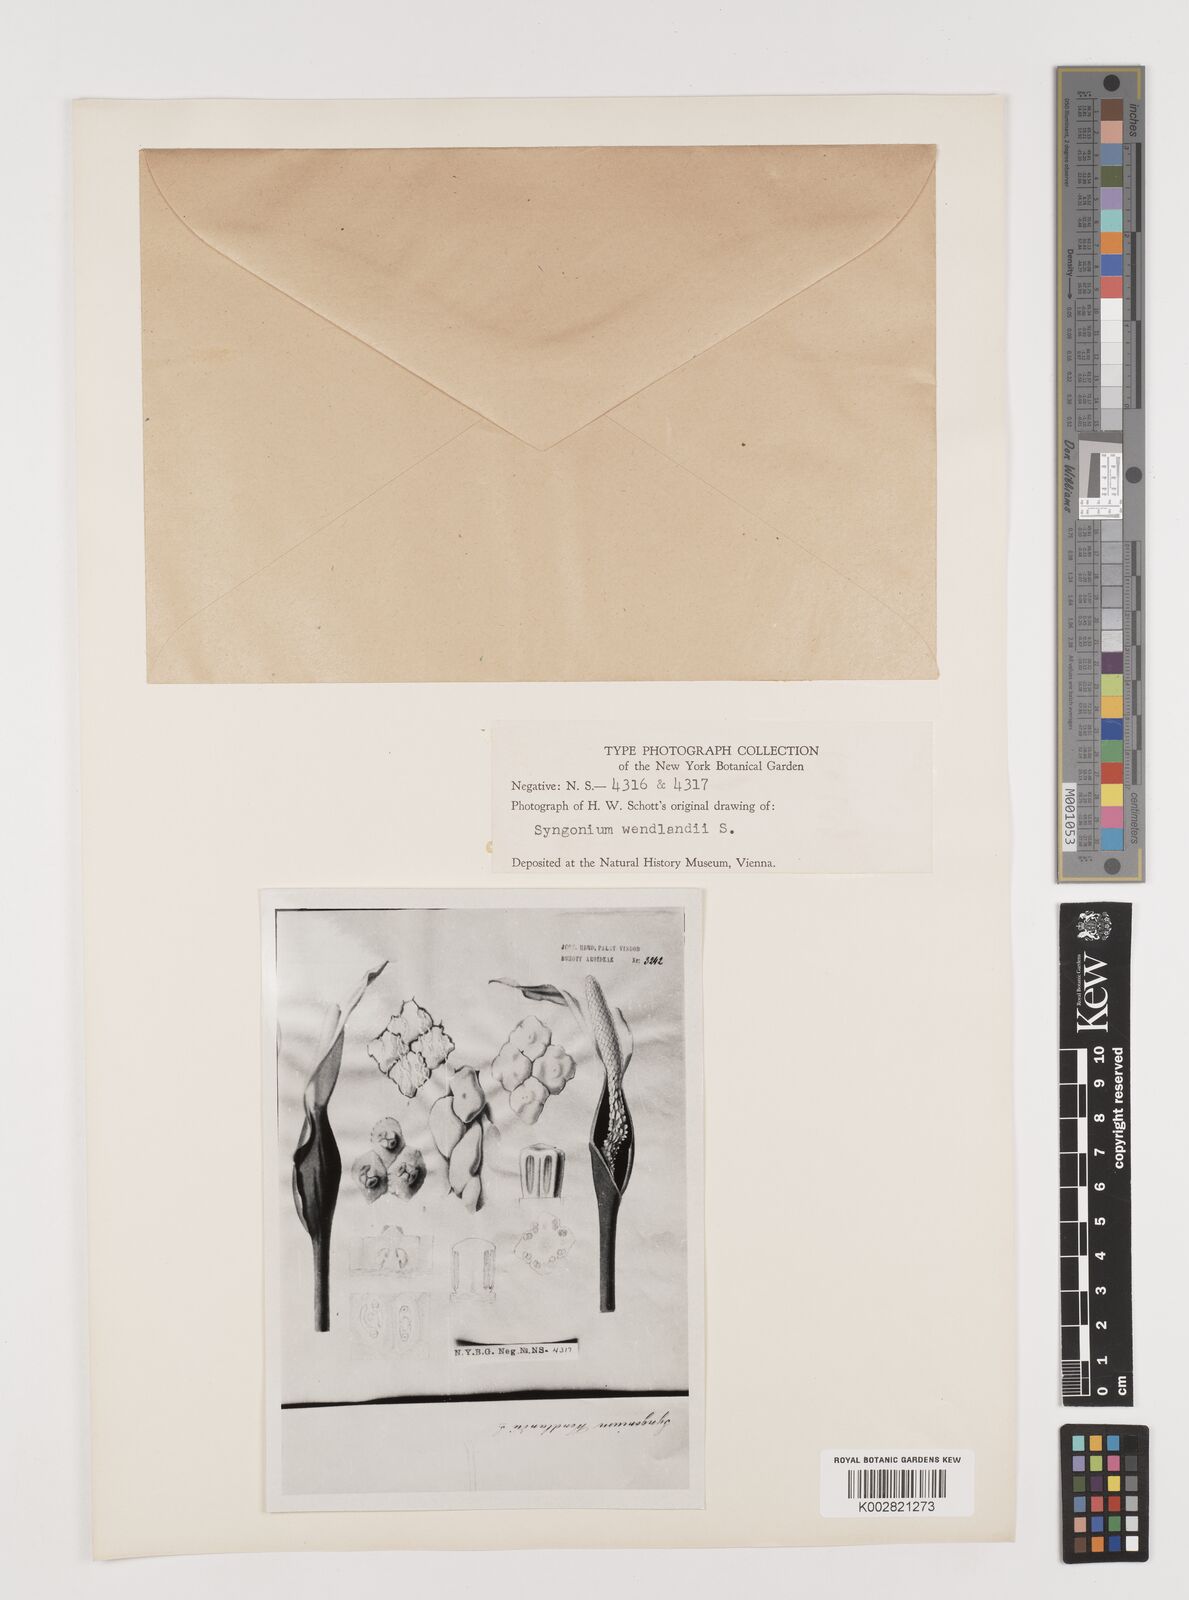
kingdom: Plantae
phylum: Tracheophyta
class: Liliopsida
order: Alismatales
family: Araceae
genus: Syngonium
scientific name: Syngonium wendlandii
